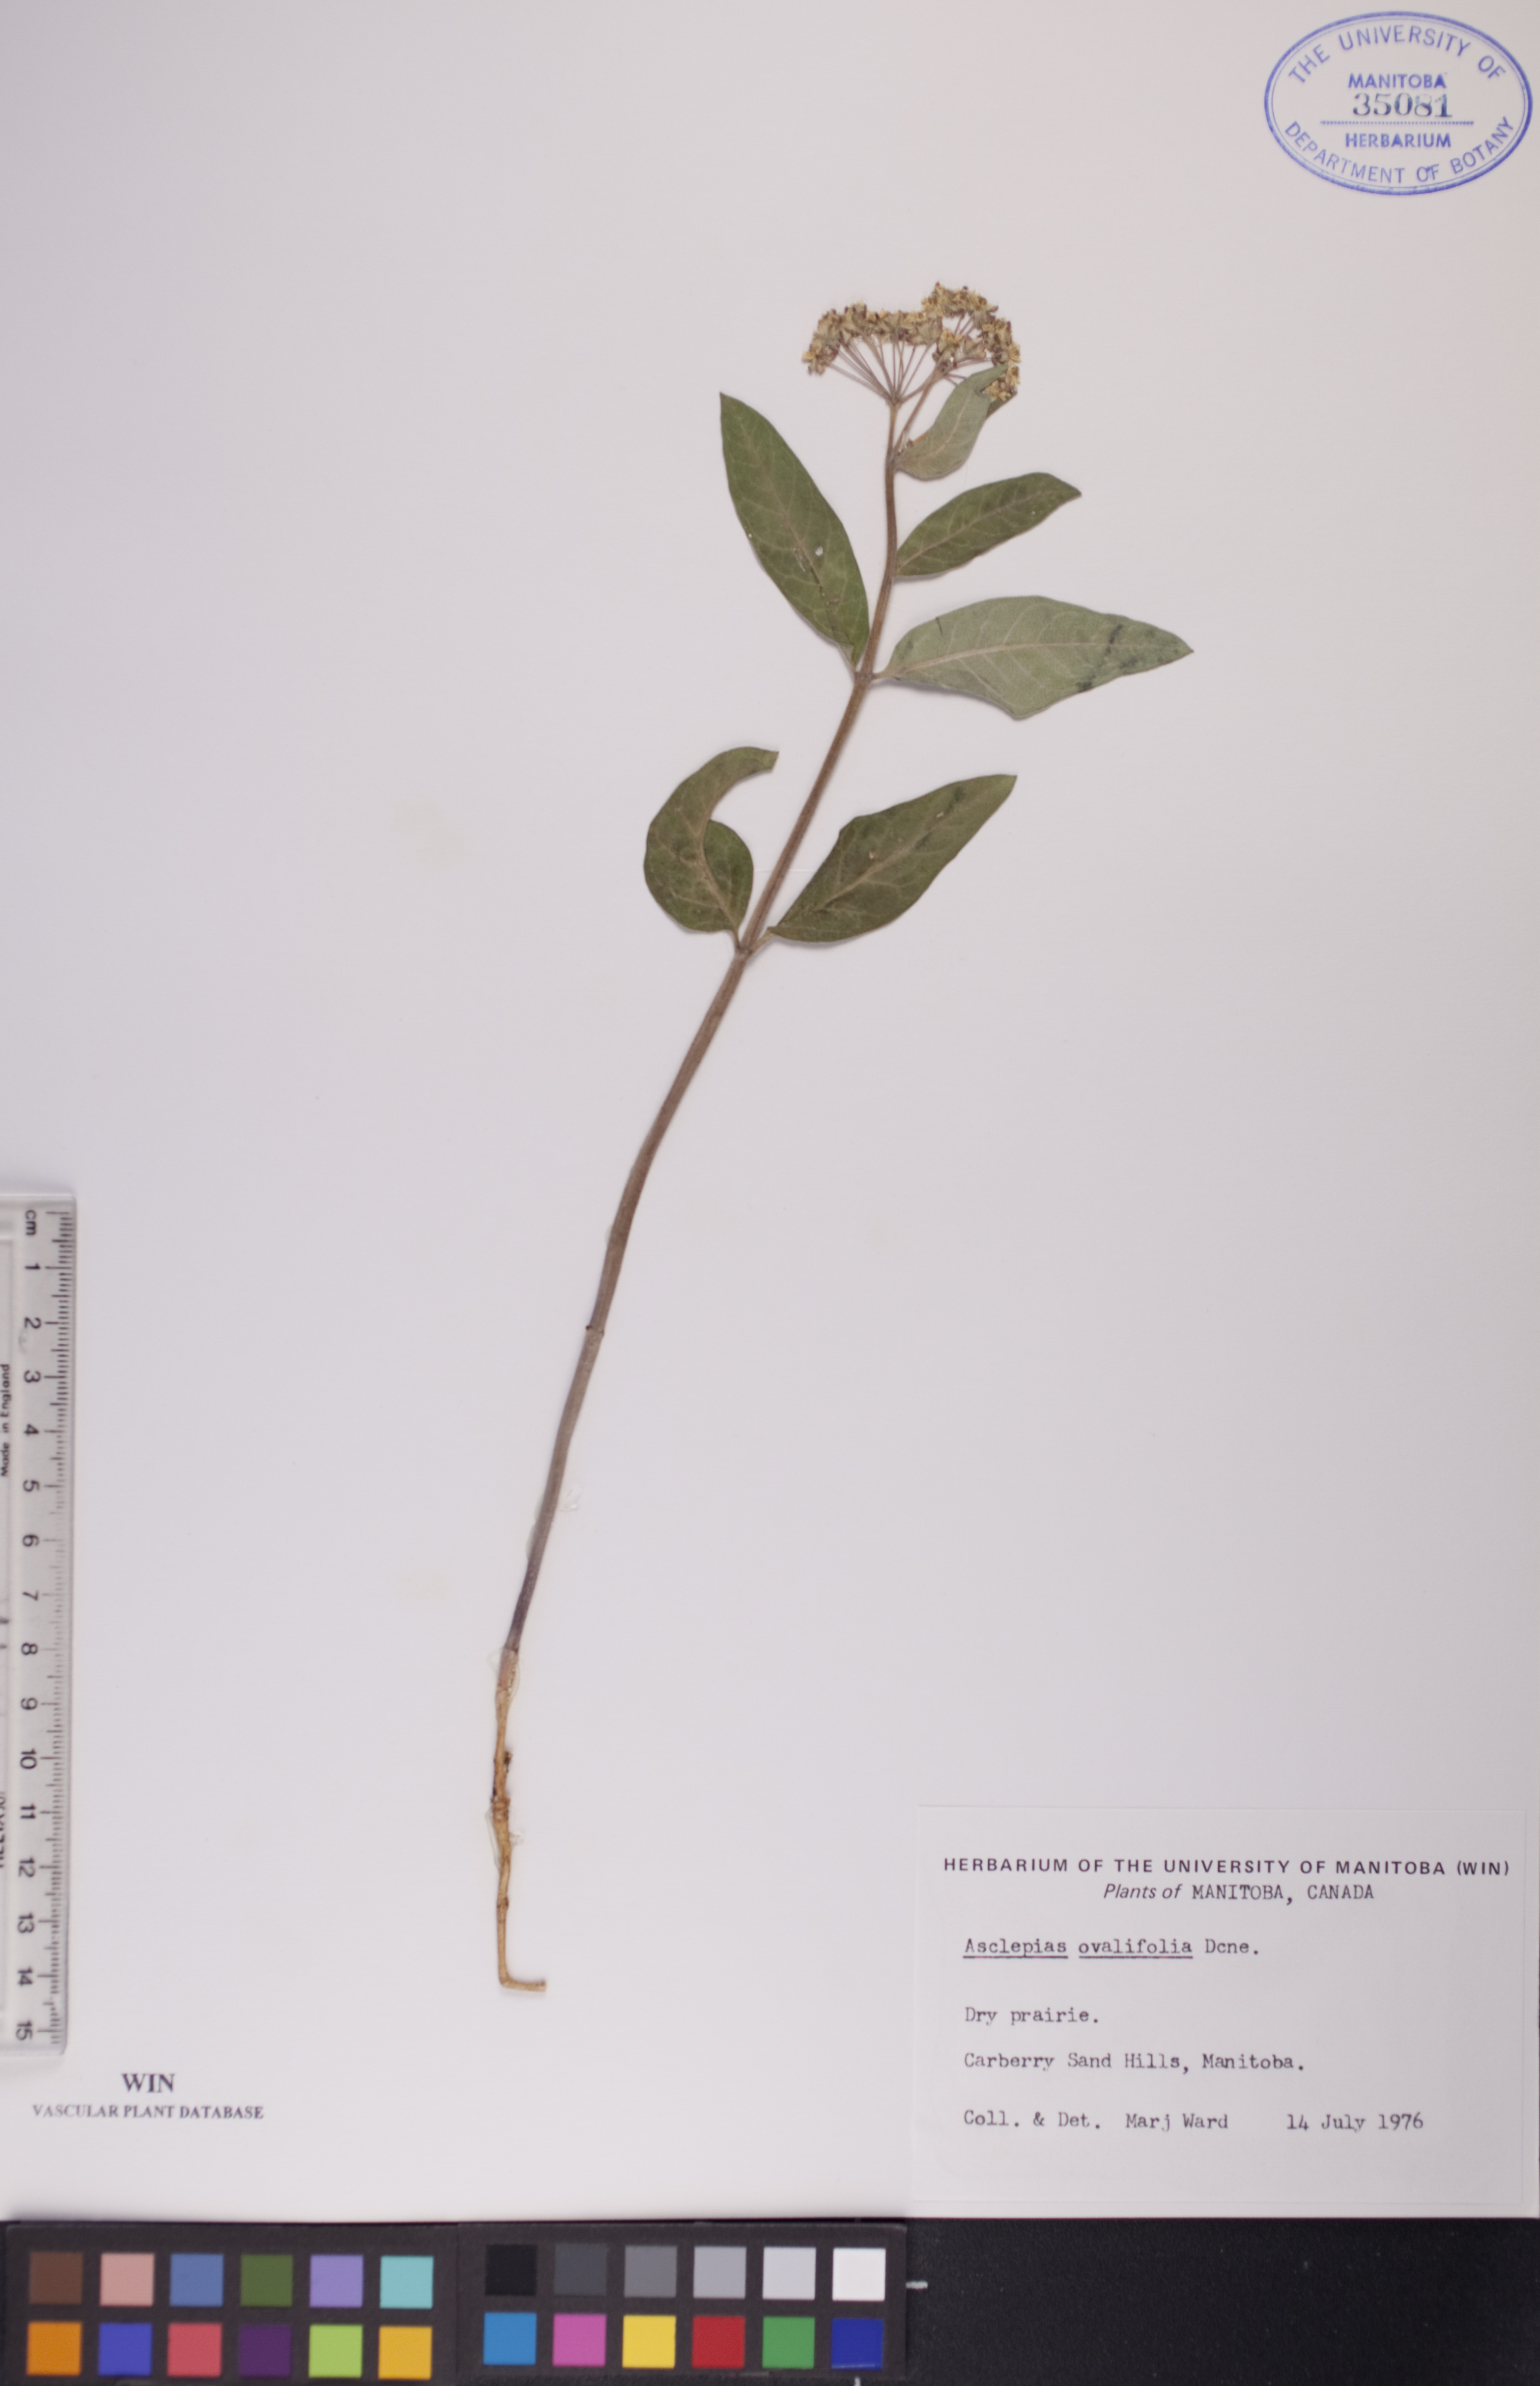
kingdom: Plantae
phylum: Tracheophyta
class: Magnoliopsida
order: Gentianales
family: Apocynaceae
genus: Asclepias
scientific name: Asclepias ovalifolia
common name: Dwarf milkweed
